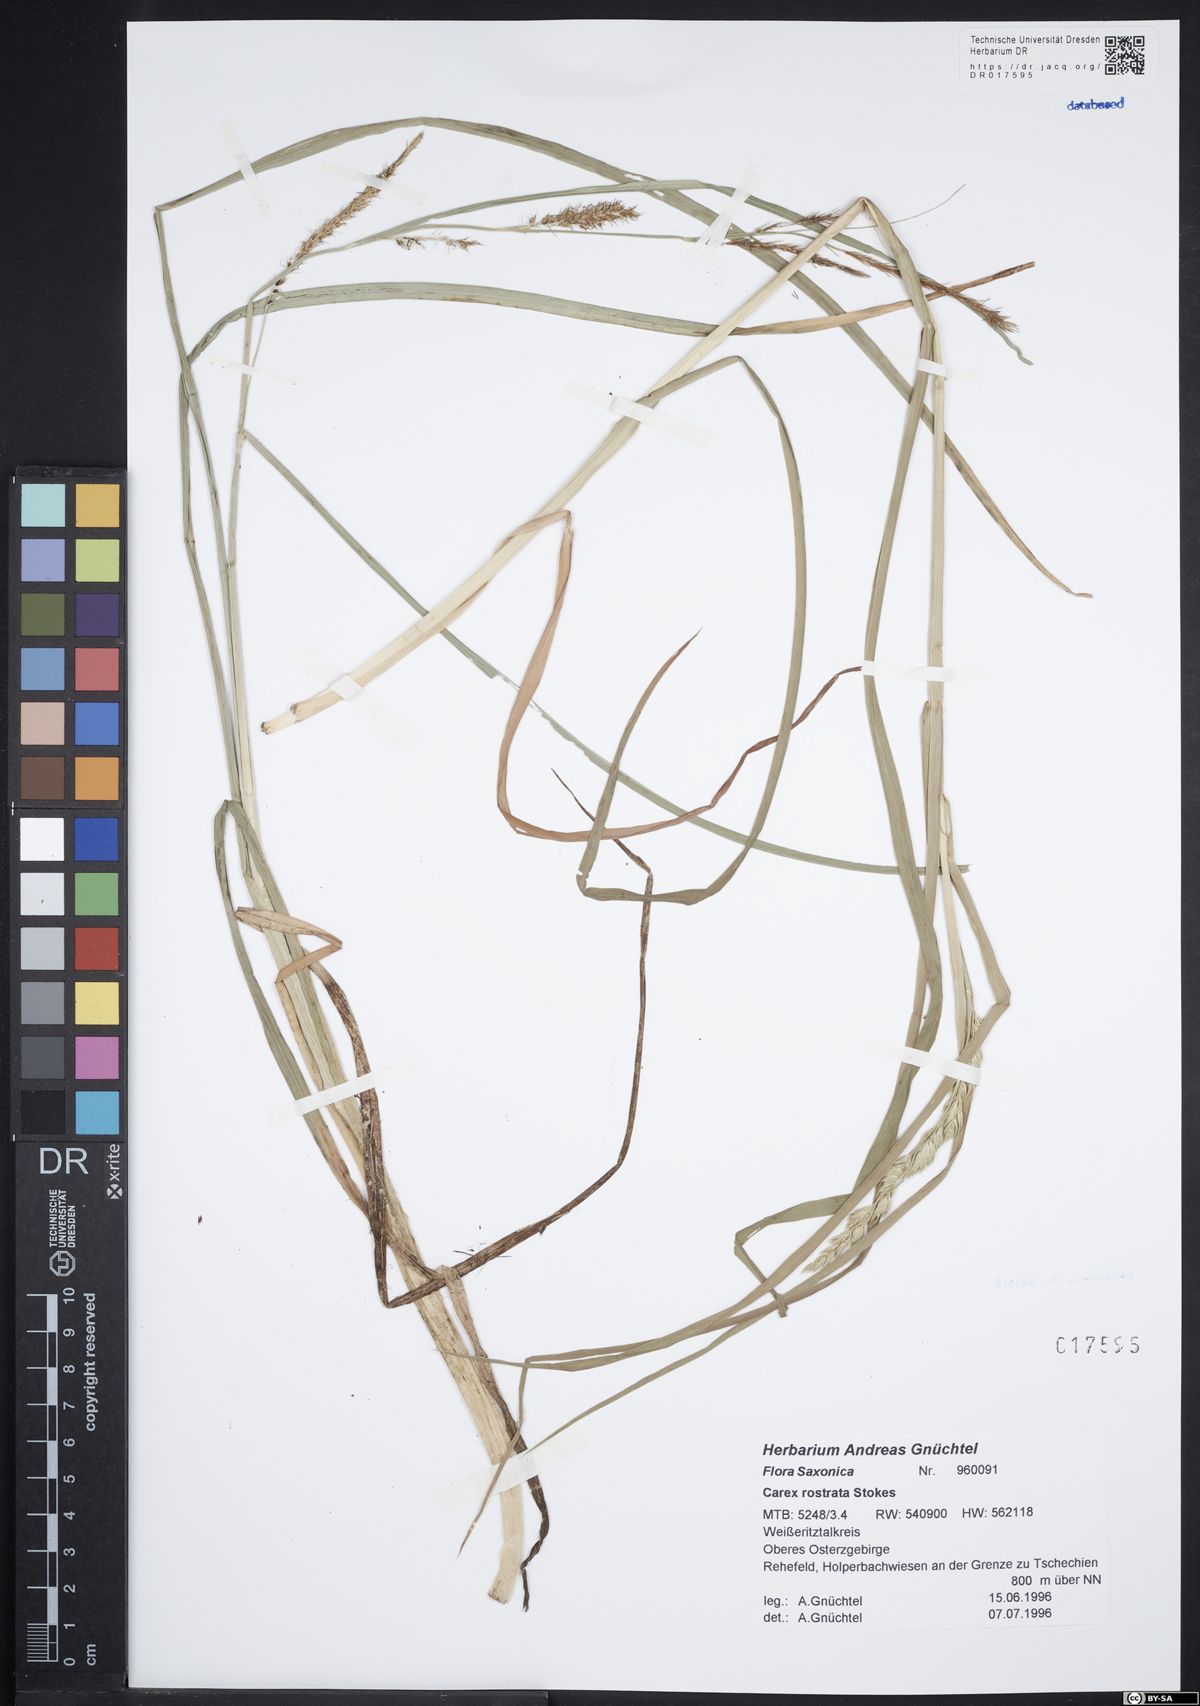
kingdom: Plantae
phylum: Tracheophyta
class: Liliopsida
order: Poales
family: Cyperaceae
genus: Carex
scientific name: Carex rostrata
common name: Bottle sedge
